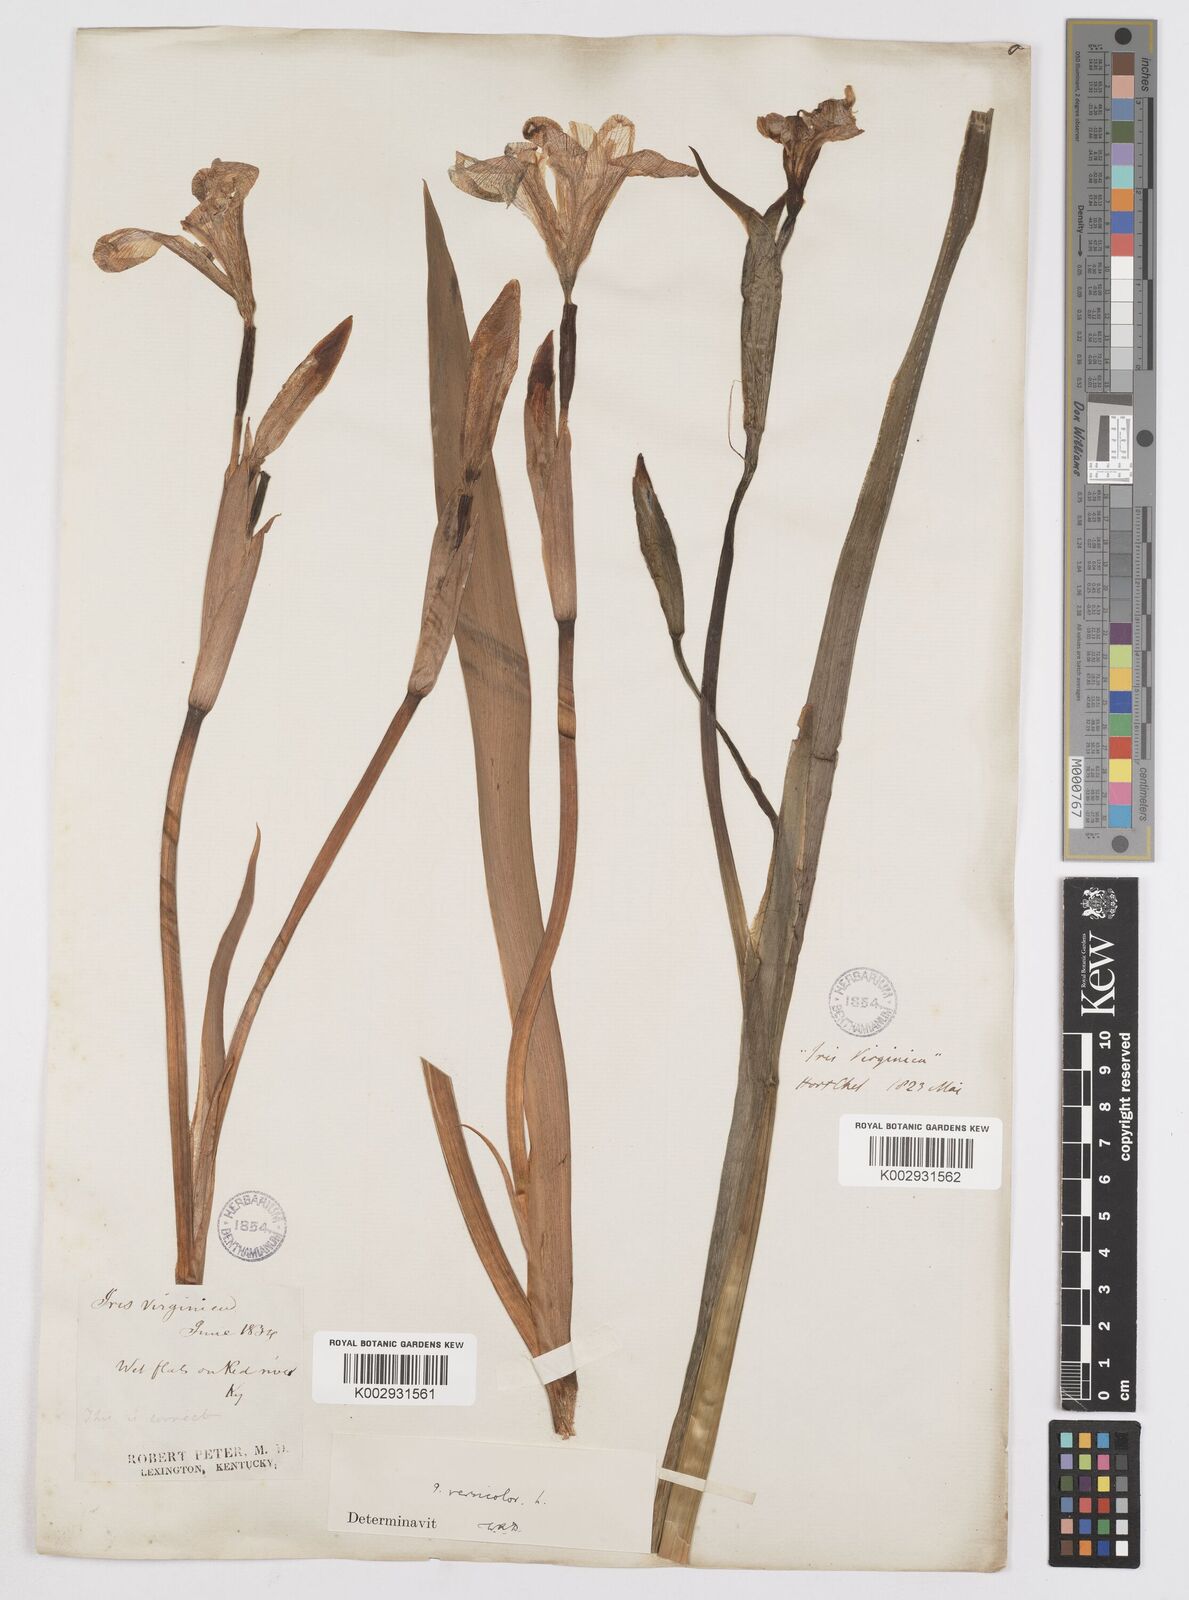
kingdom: Plantae
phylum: Tracheophyta
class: Liliopsida
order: Asparagales
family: Iridaceae
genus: Iris
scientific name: Iris virginica
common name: Southern blue flag
